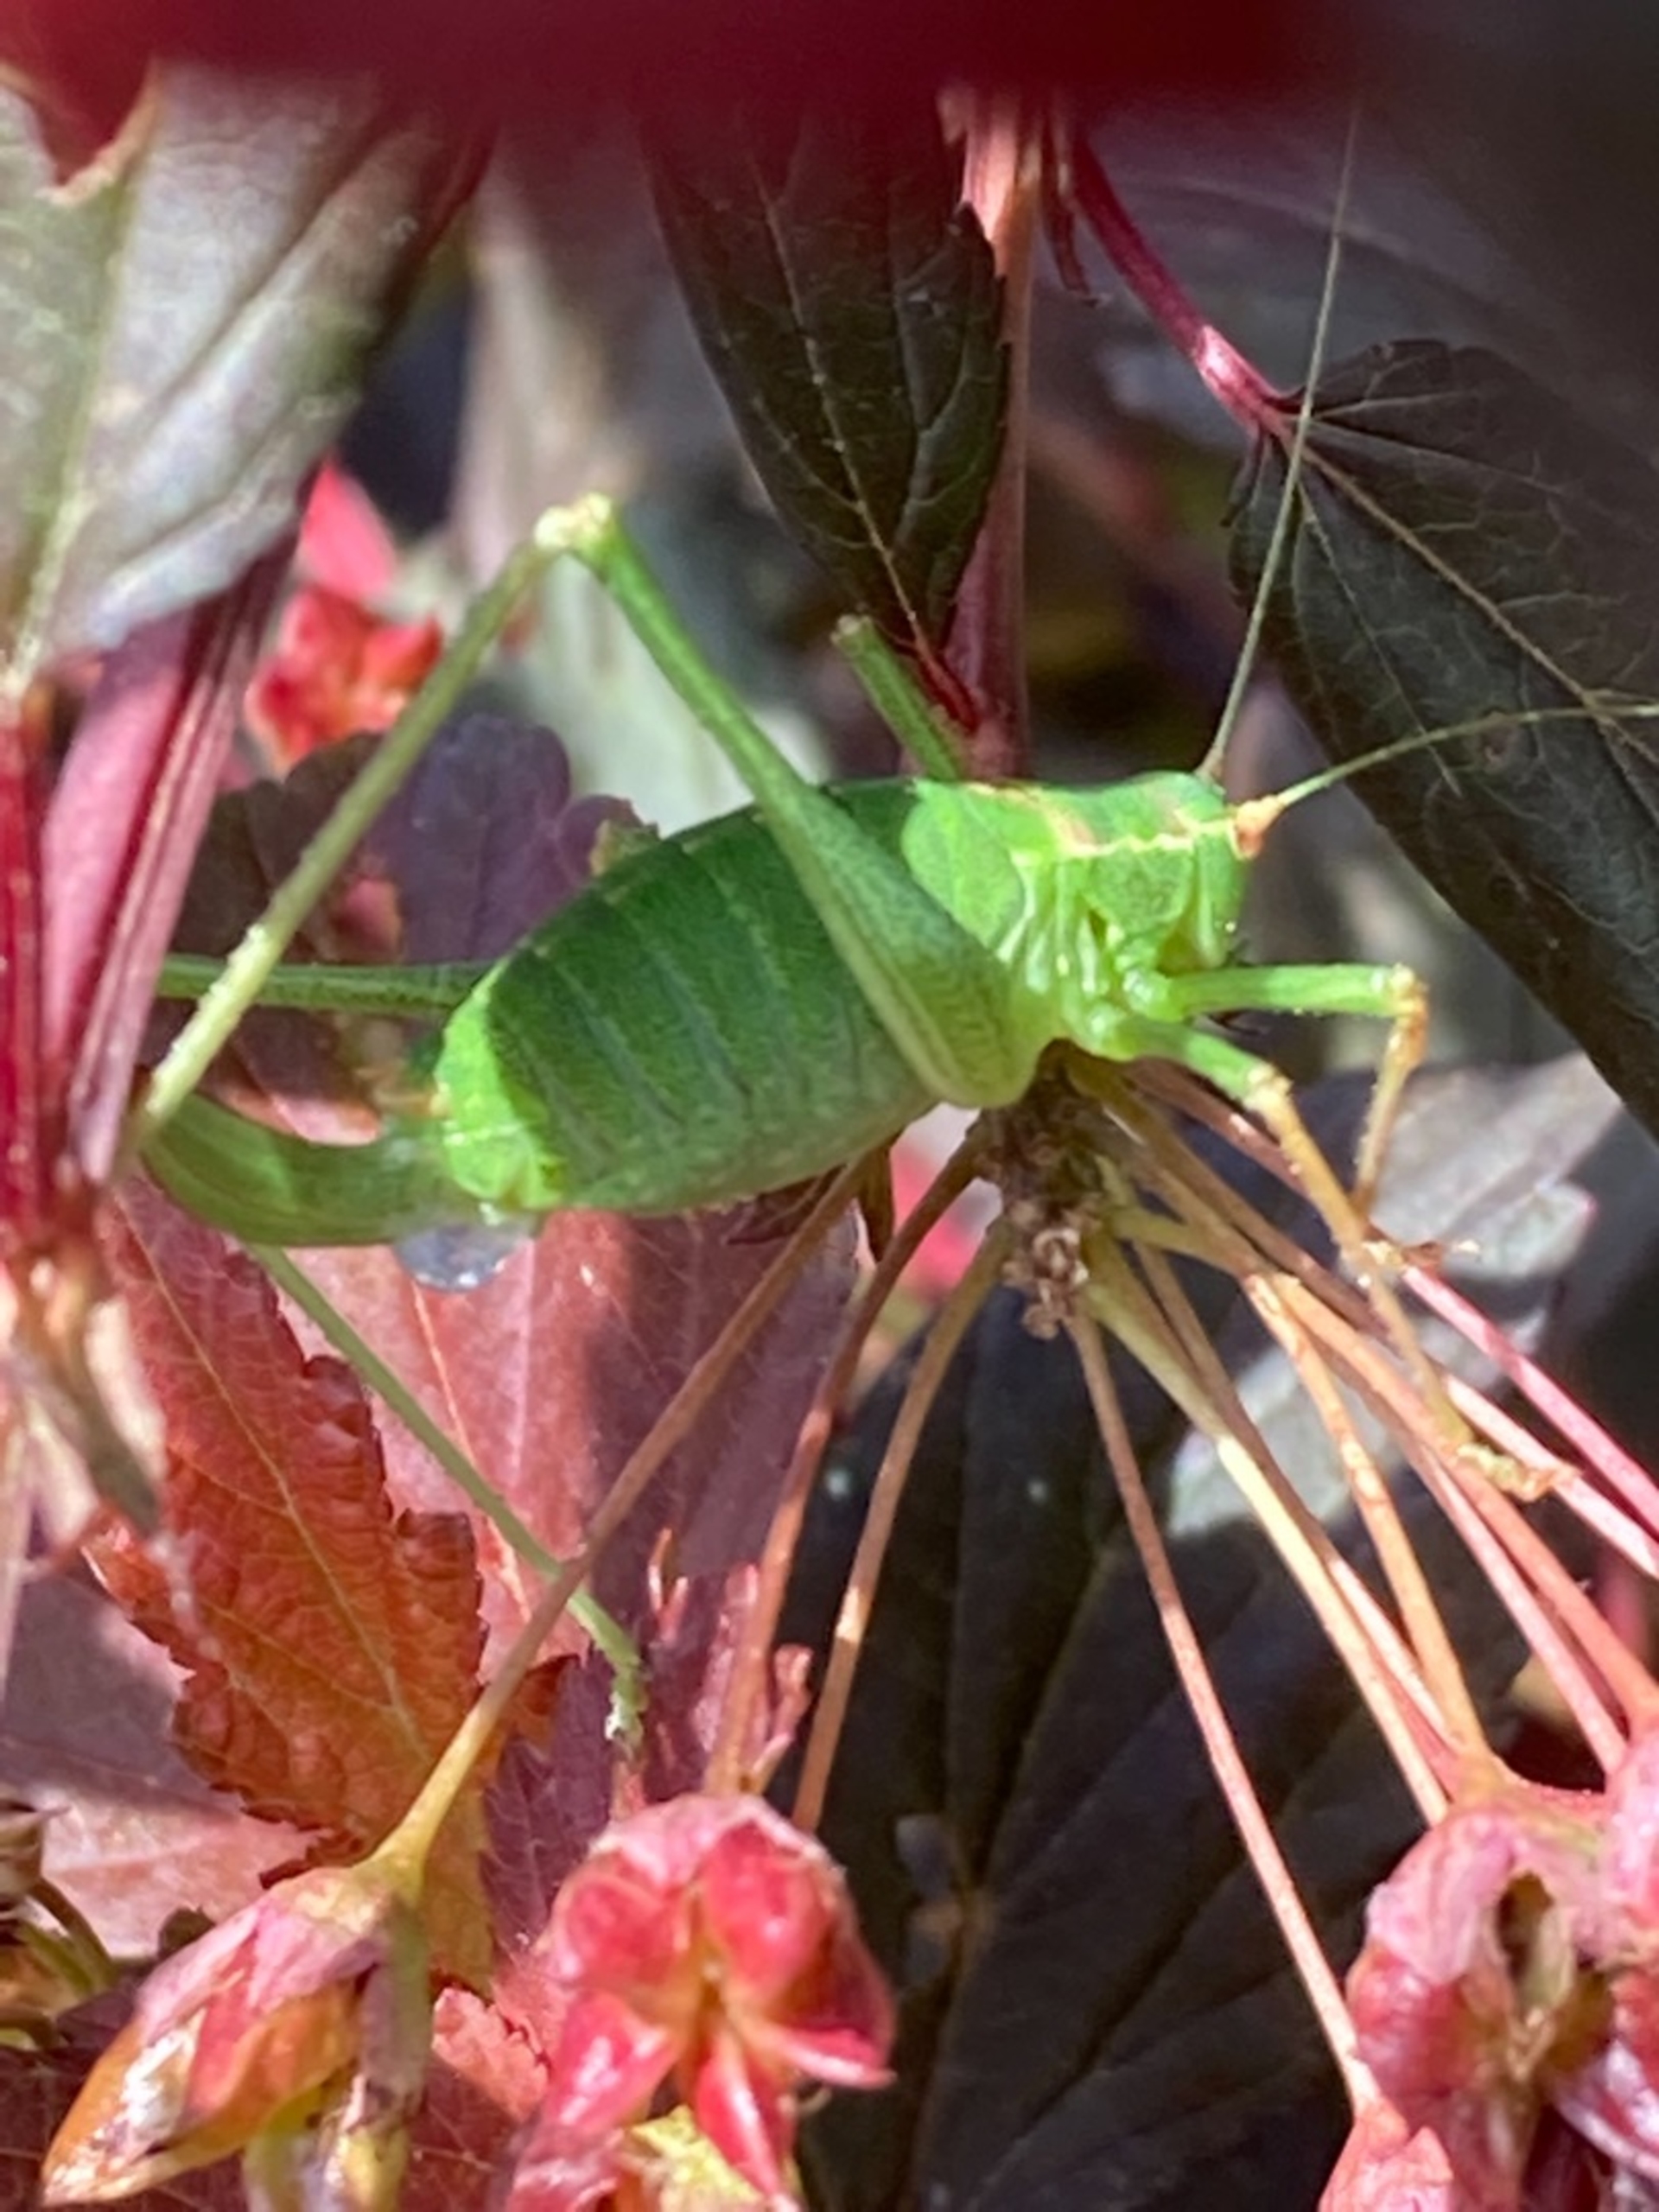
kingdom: Animalia
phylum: Arthropoda
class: Insecta
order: Orthoptera
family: Tettigoniidae
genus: Leptophyes
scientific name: Leptophyes punctatissima
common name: Krumknivgræshoppe
